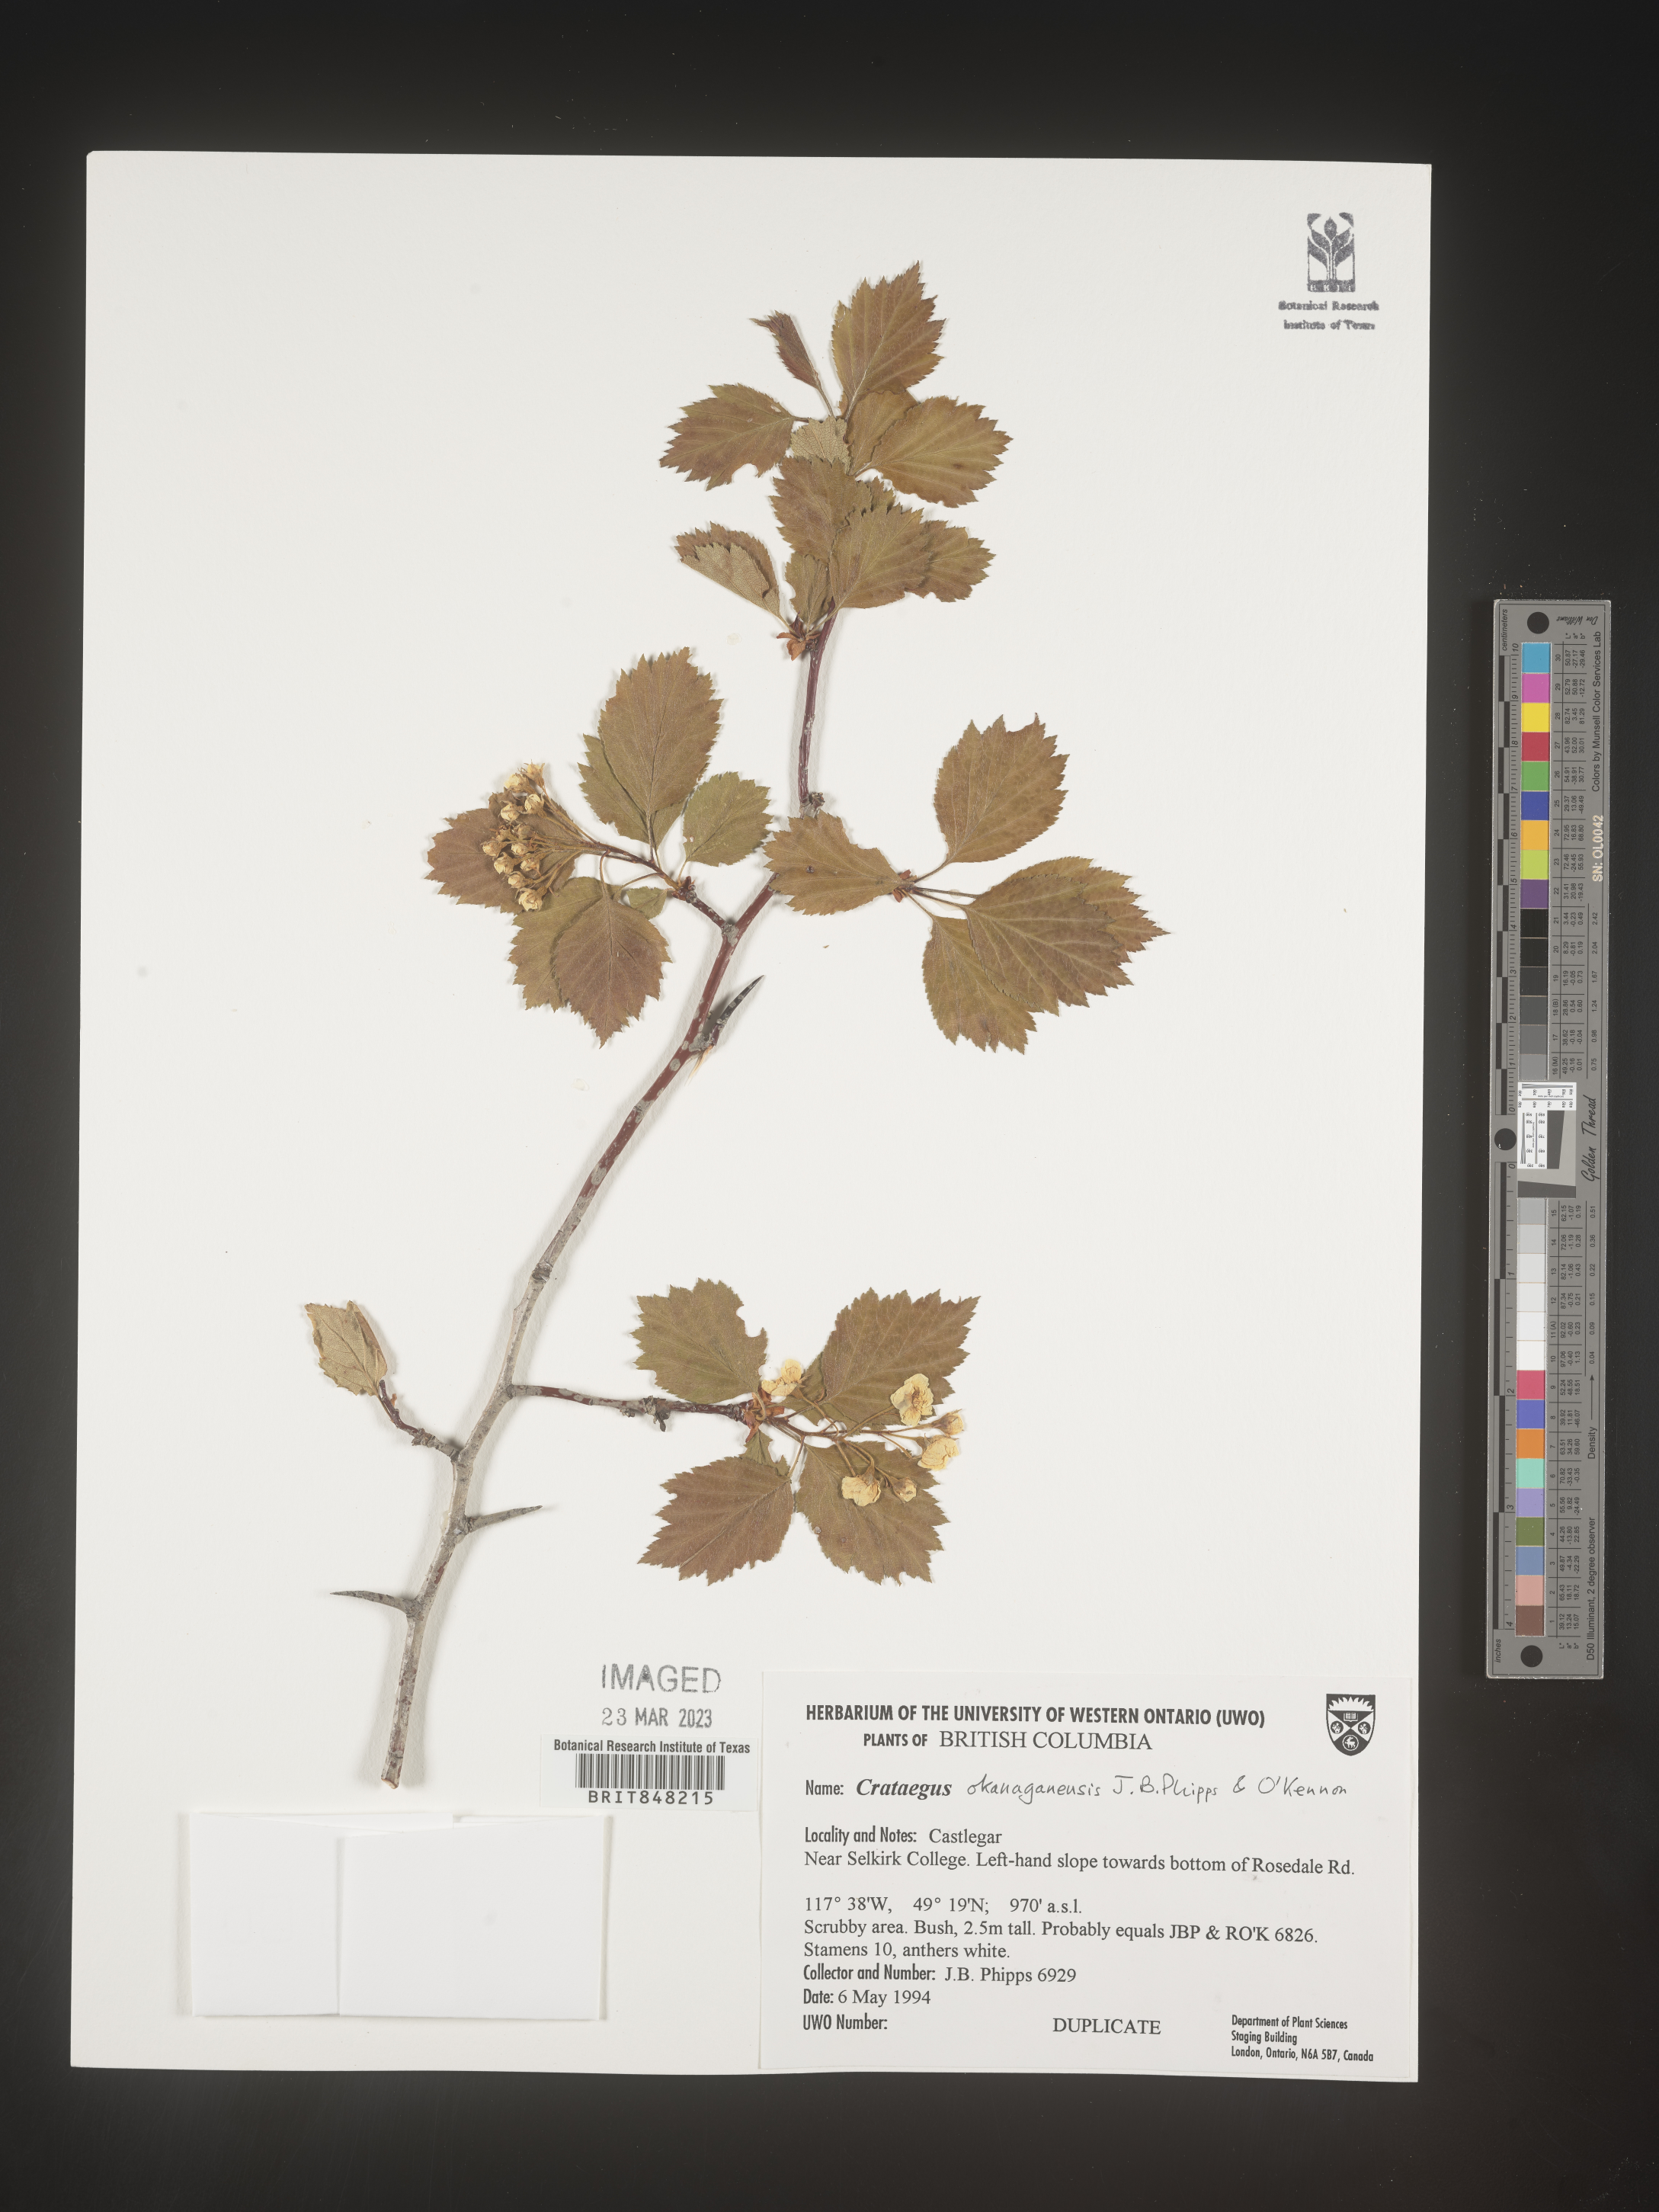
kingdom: Plantae
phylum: Tracheophyta
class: Magnoliopsida
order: Rosales
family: Rosaceae
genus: Crataegus
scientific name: Crataegus okanaganensis
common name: Okanagan valley hawthorn
